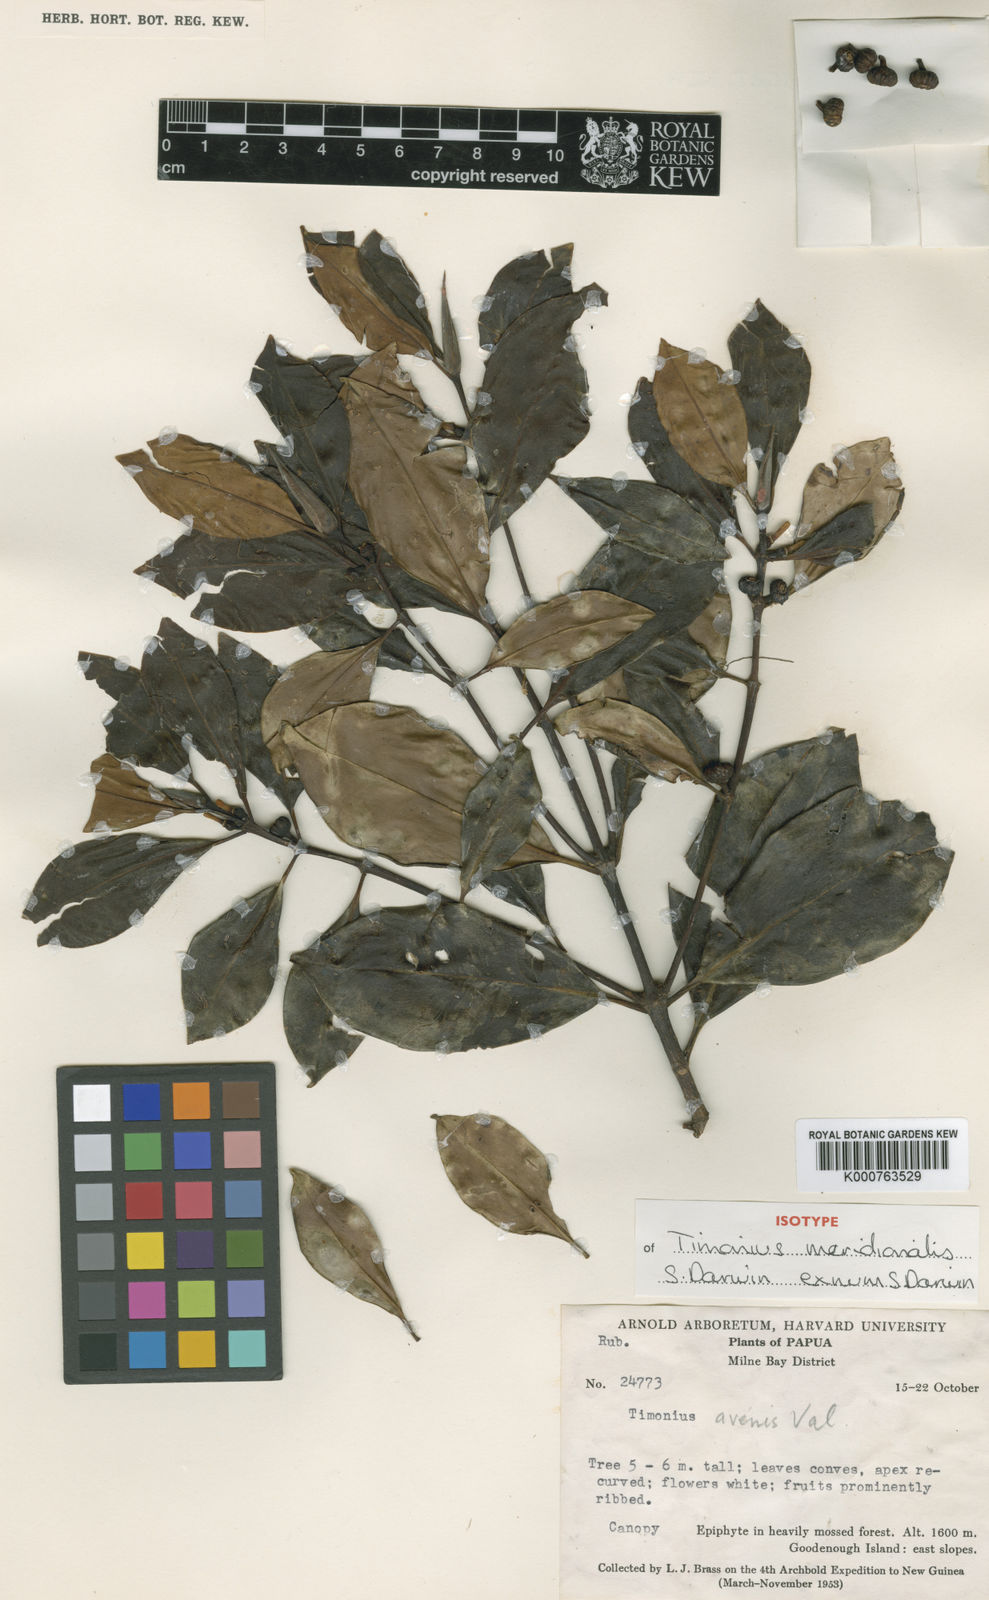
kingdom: Plantae
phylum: Tracheophyta
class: Magnoliopsida
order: Gentianales
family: Rubiaceae
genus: Timonius
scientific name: Timonius meridionalis
